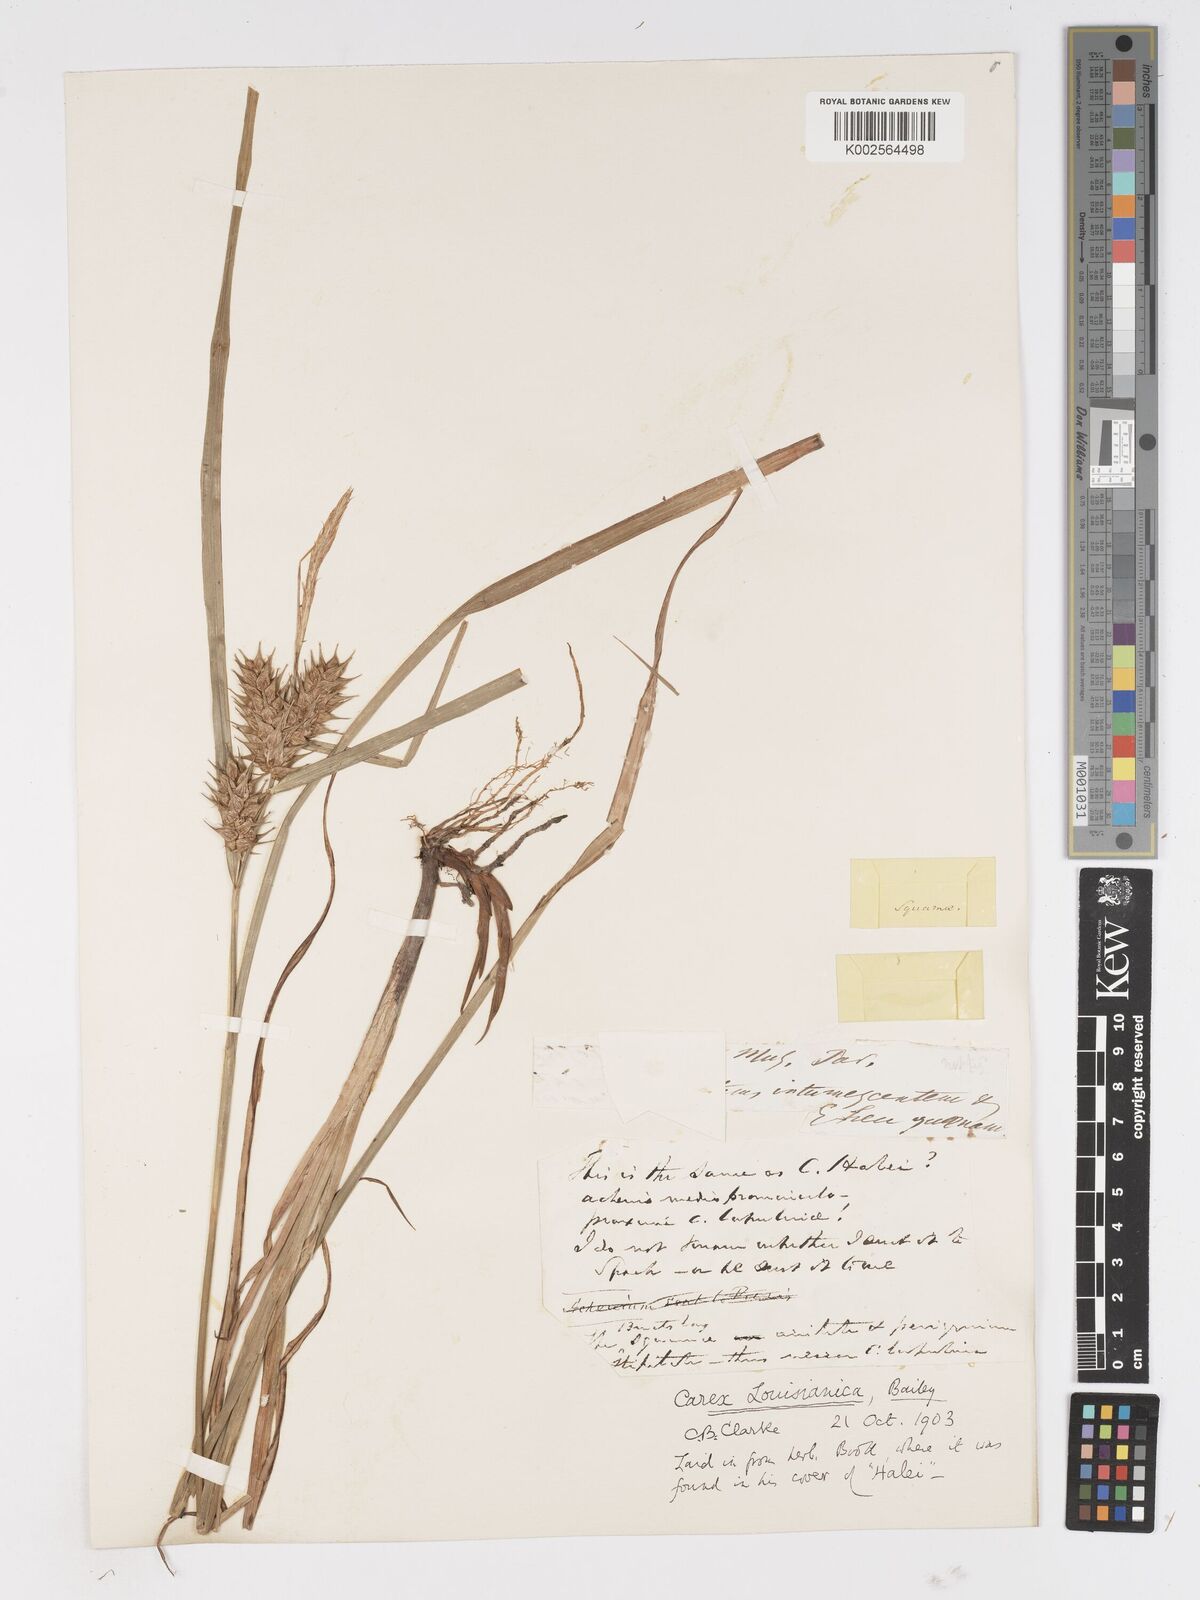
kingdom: Plantae
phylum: Tracheophyta
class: Liliopsida
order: Poales
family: Cyperaceae
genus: Carex
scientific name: Carex louisianica
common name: Louisiana sedge
